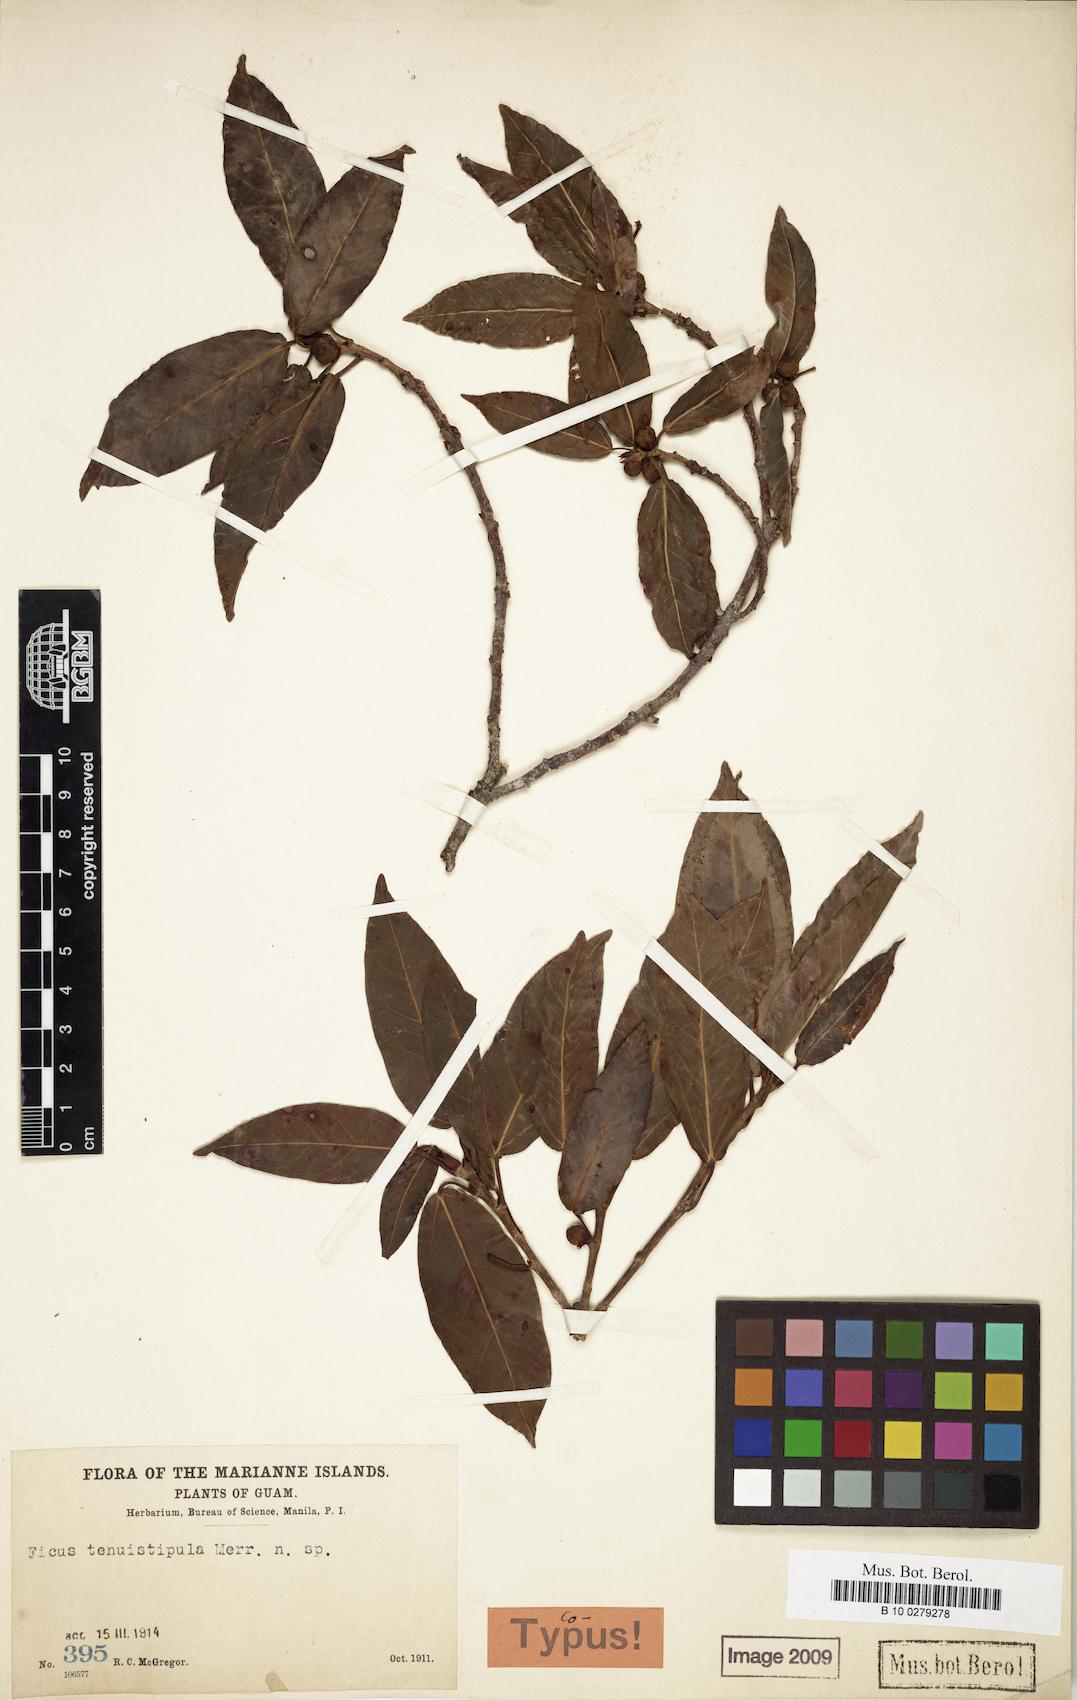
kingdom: Plantae
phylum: Tracheophyta
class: Magnoliopsida
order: Rosales
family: Moraceae
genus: Ficus
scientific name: Ficus prolixa
